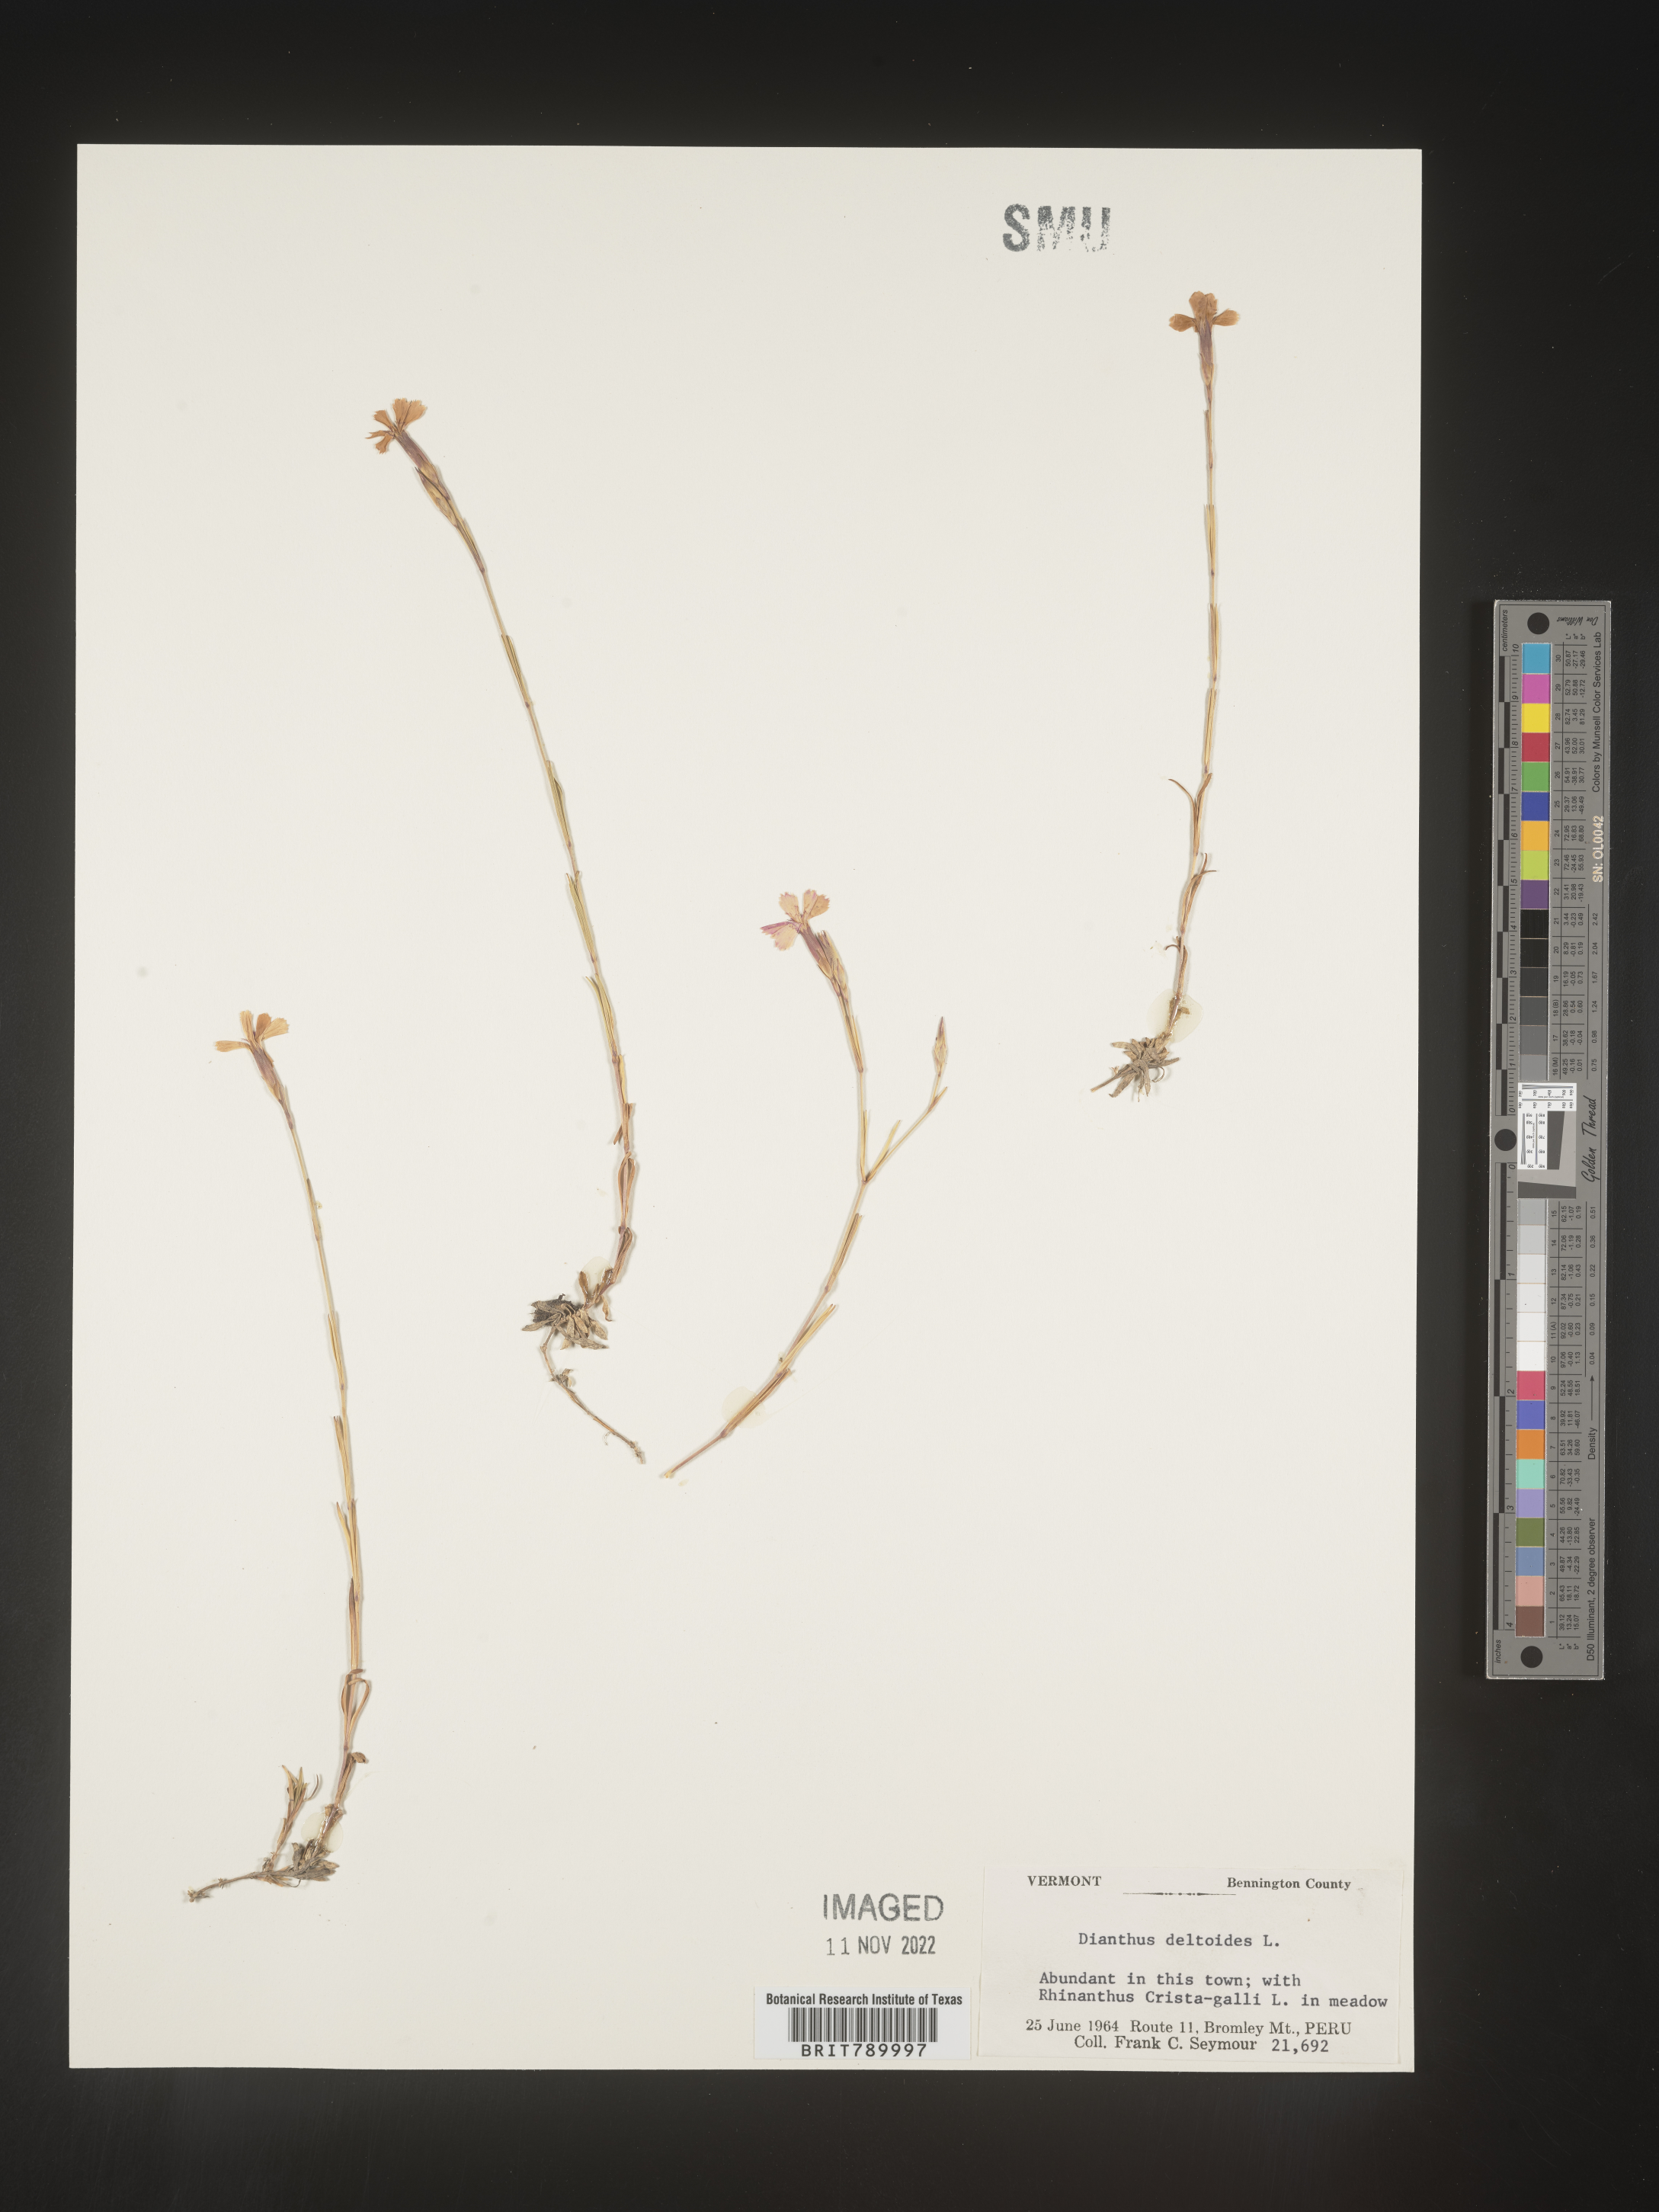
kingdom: Plantae
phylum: Tracheophyta
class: Magnoliopsida
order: Caryophyllales
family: Caryophyllaceae
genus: Dianthus
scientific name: Dianthus deltoides
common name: Maiden pink
